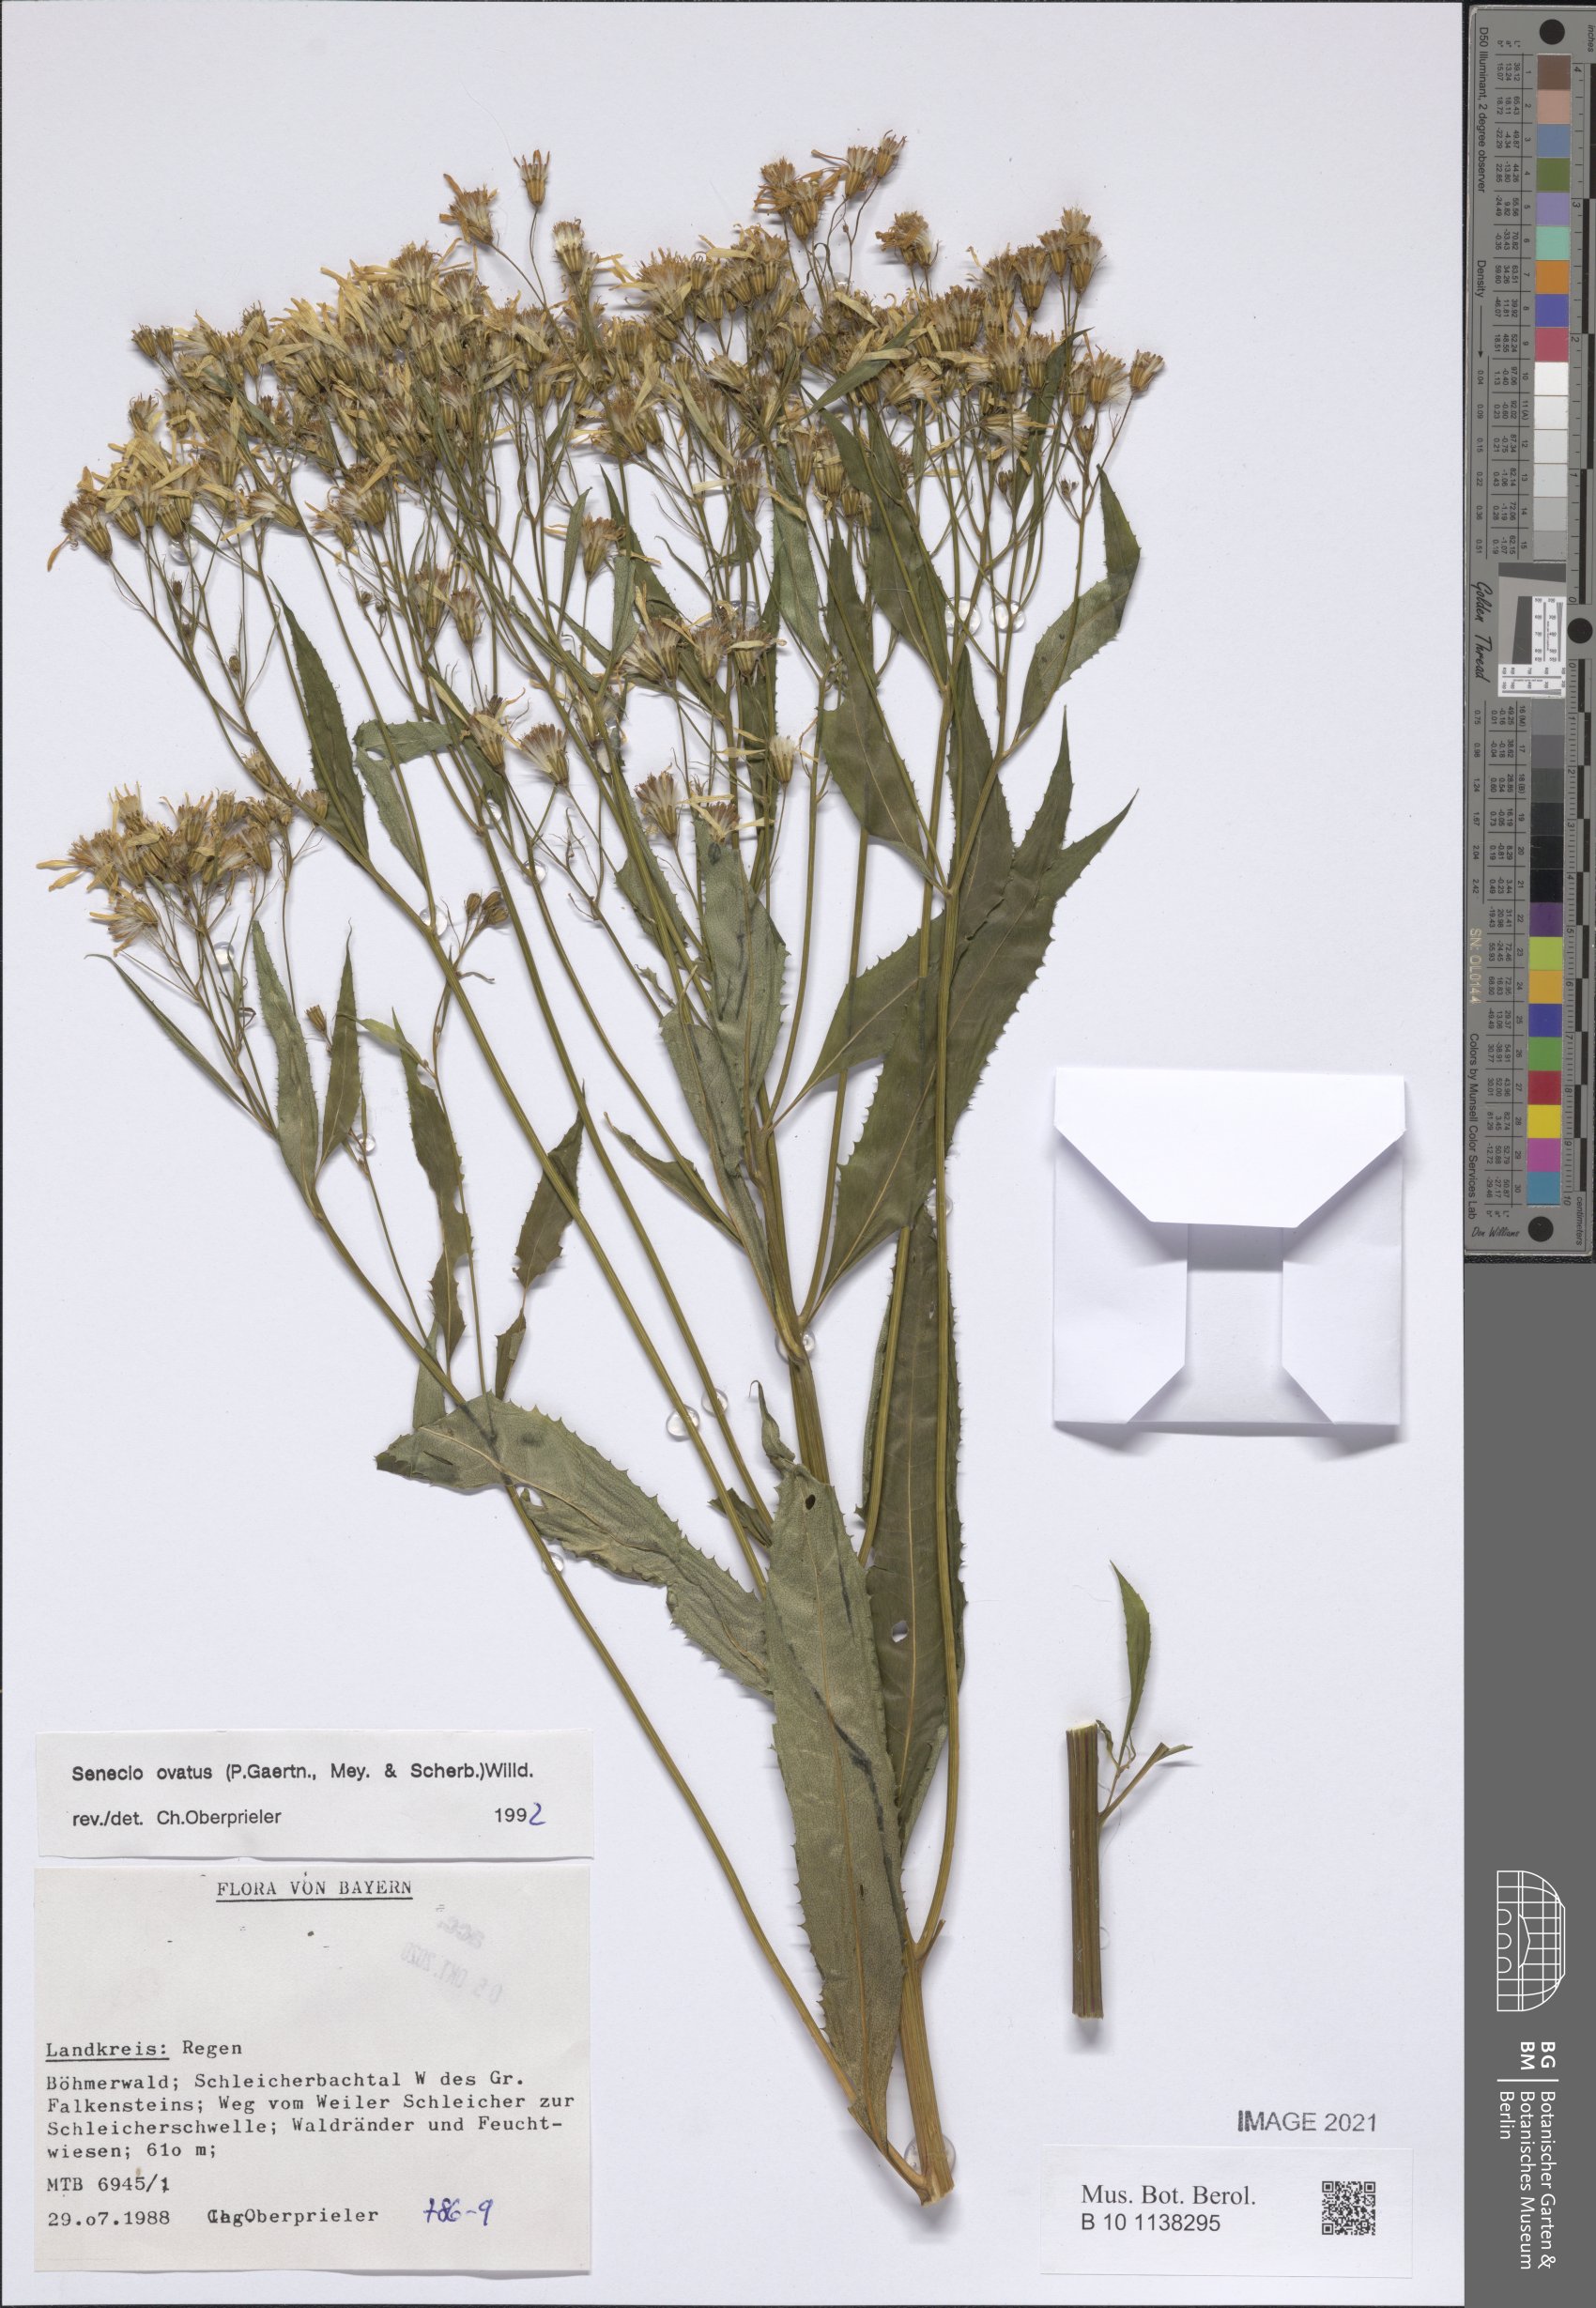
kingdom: Plantae
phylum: Tracheophyta
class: Magnoliopsida
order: Asterales
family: Asteraceae
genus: Senecio
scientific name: Senecio ovatus
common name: Wood ragwort
